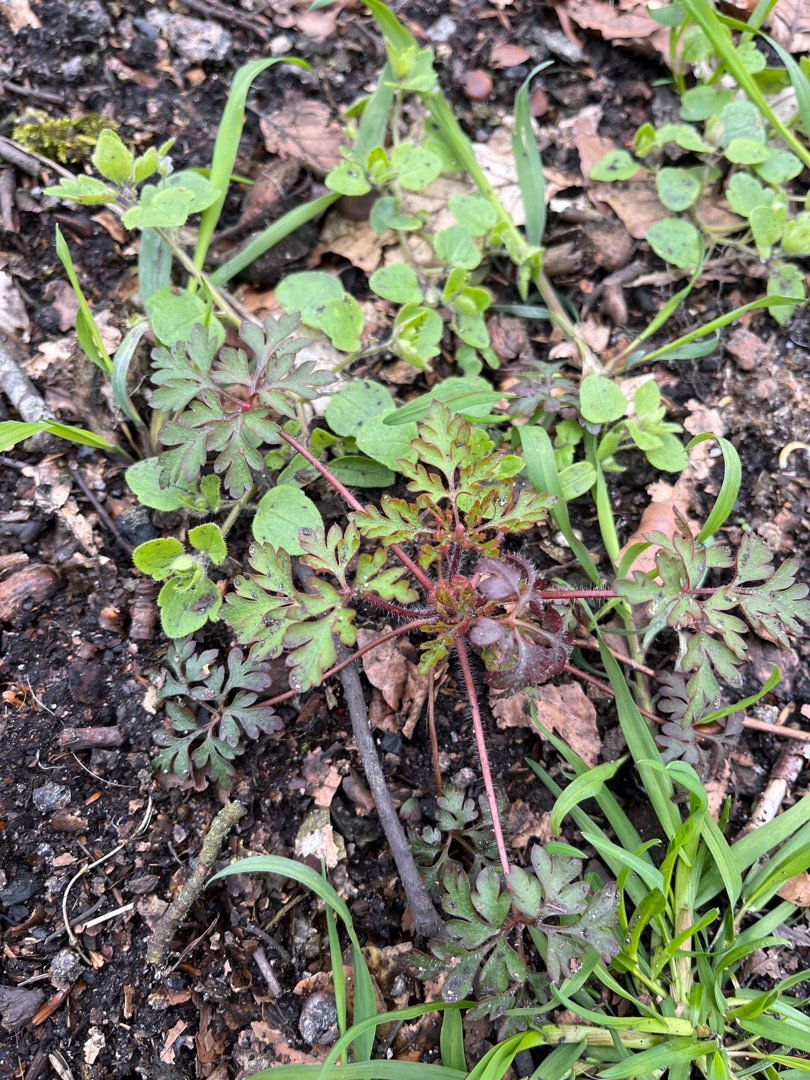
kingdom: Plantae
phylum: Tracheophyta
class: Magnoliopsida
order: Geraniales
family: Geraniaceae
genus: Geranium
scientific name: Geranium robertianum
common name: Stinkende storkenæb
